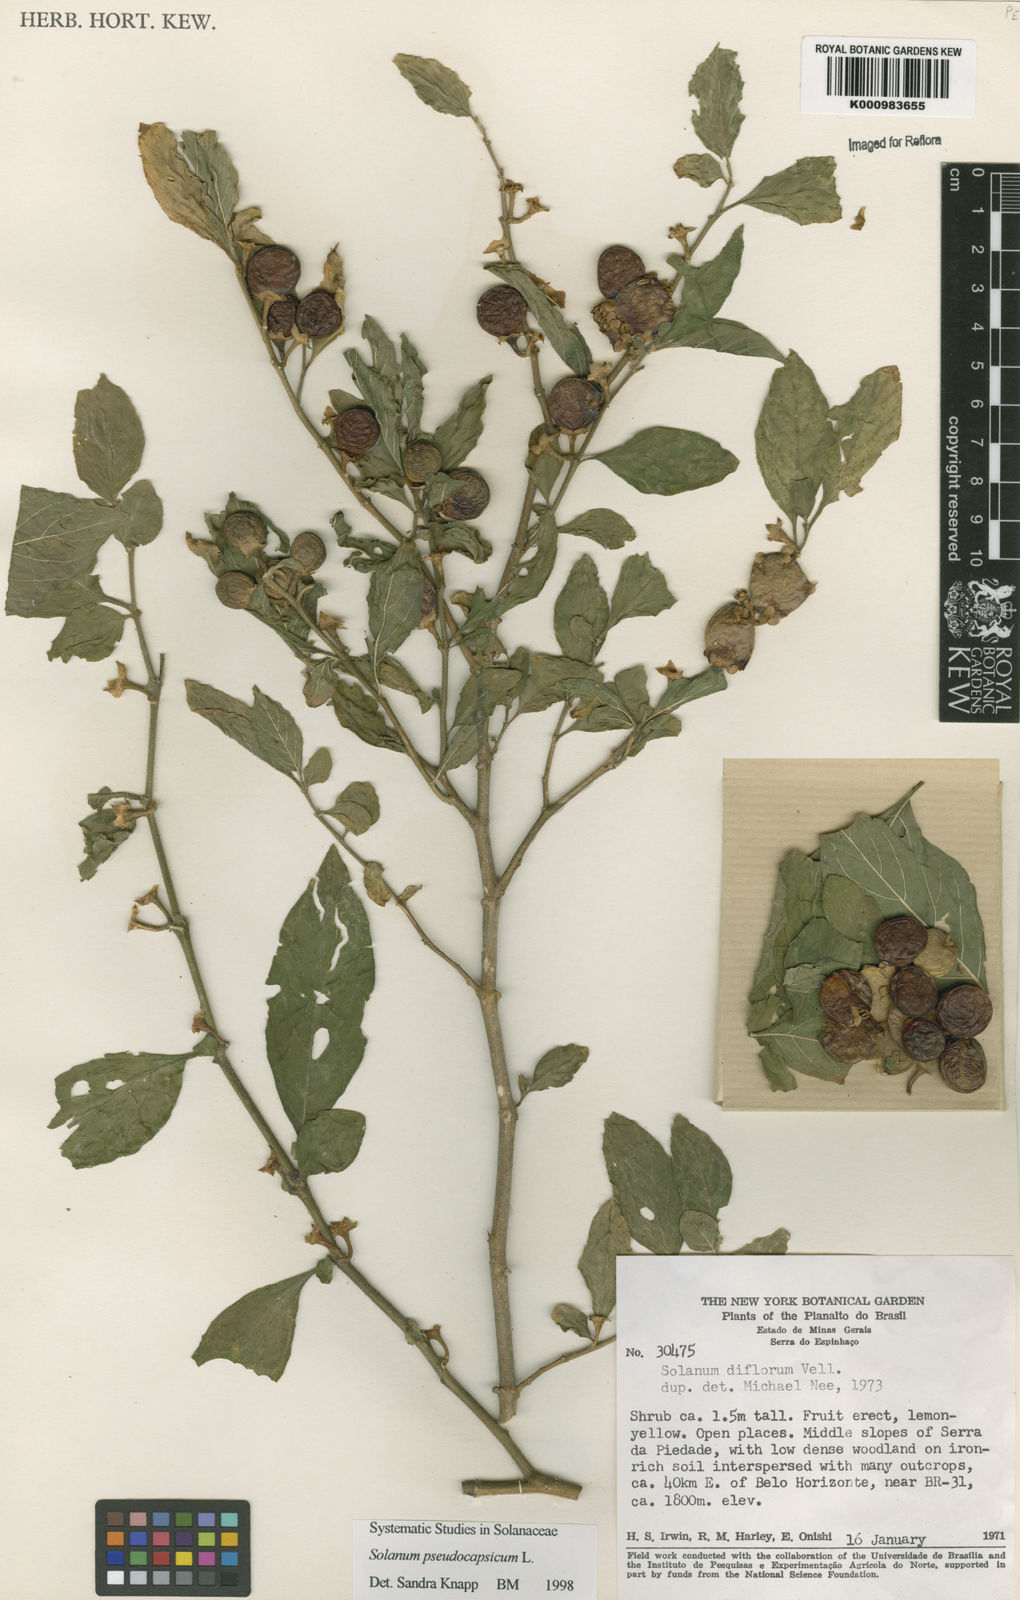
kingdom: Plantae
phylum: Tracheophyta
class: Magnoliopsida
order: Solanales
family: Solanaceae
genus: Solanum
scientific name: Solanum pseudocapsicum
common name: Jerusalem cherry
